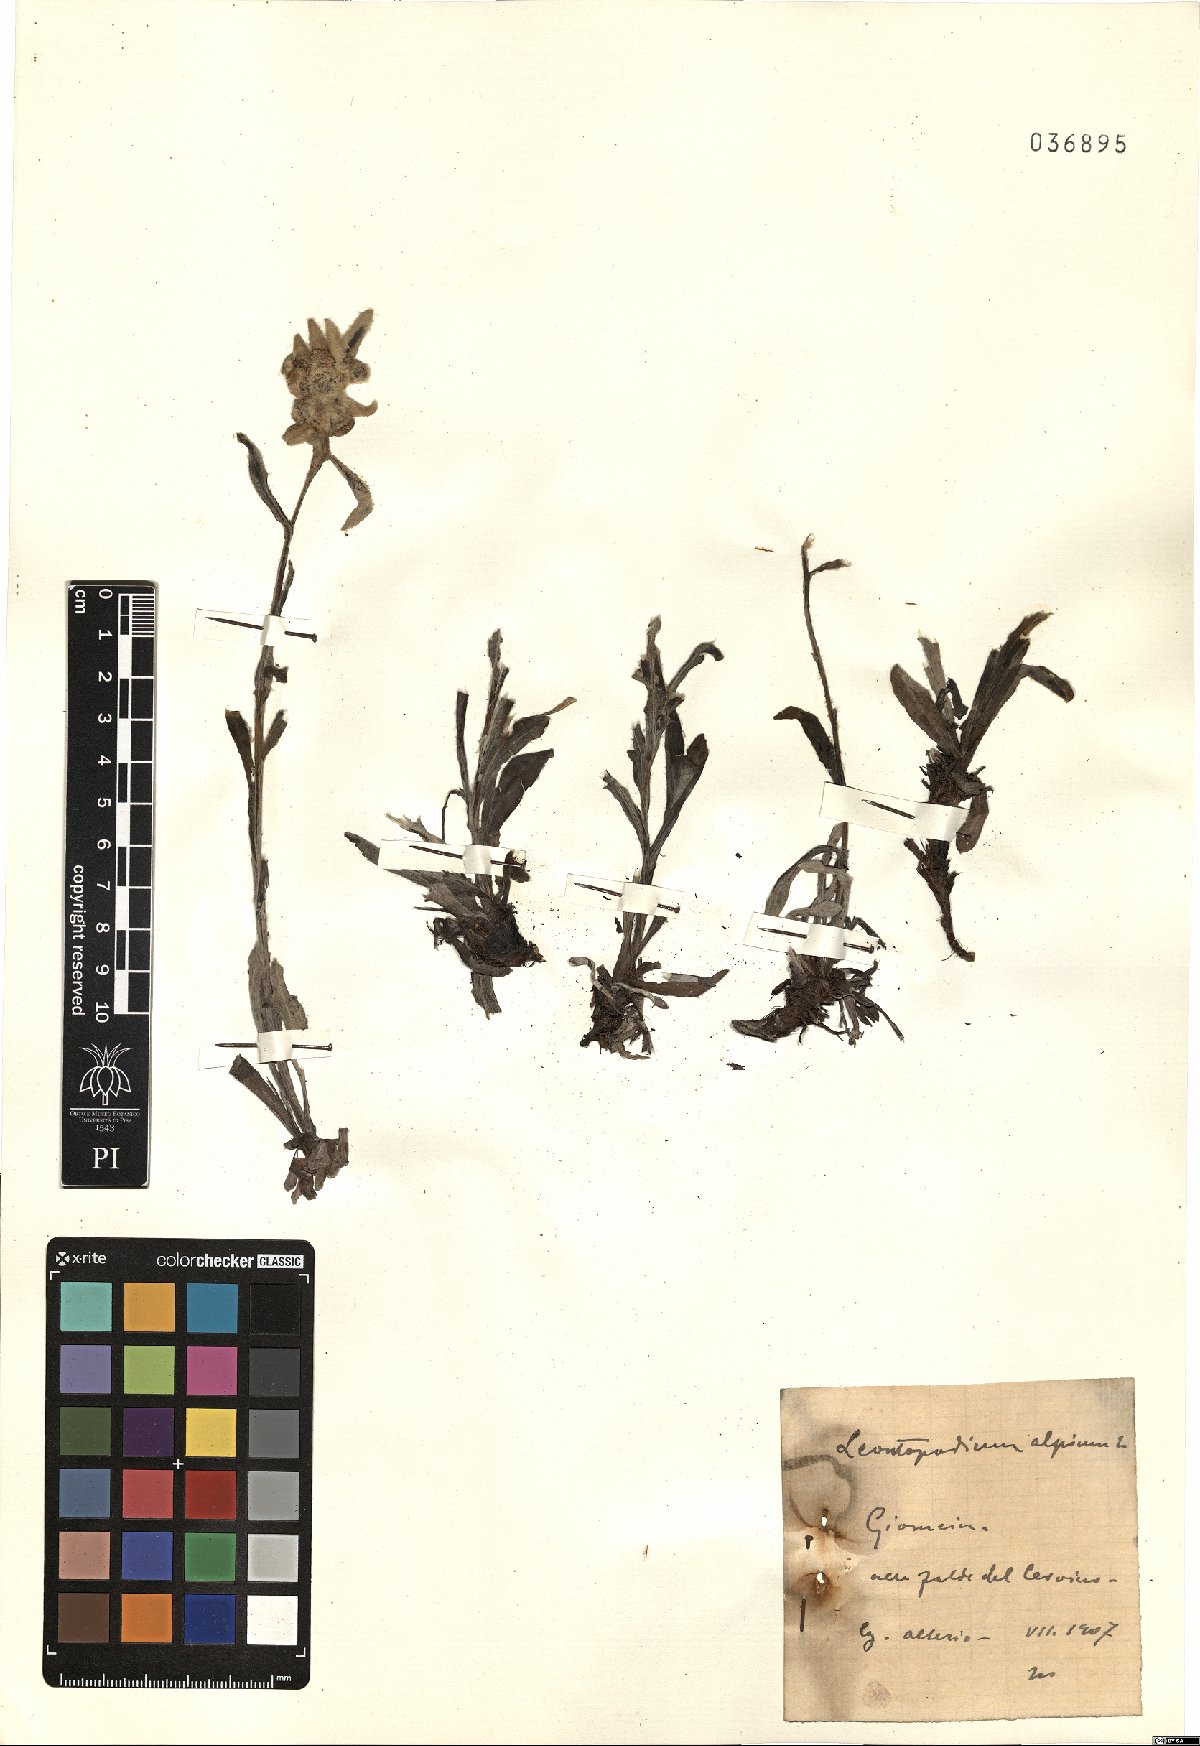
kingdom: Plantae
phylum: Tracheophyta
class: Magnoliopsida
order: Asterales
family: Asteraceae
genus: Leontopodium
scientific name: Leontopodium nivale
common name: Edelweiss
